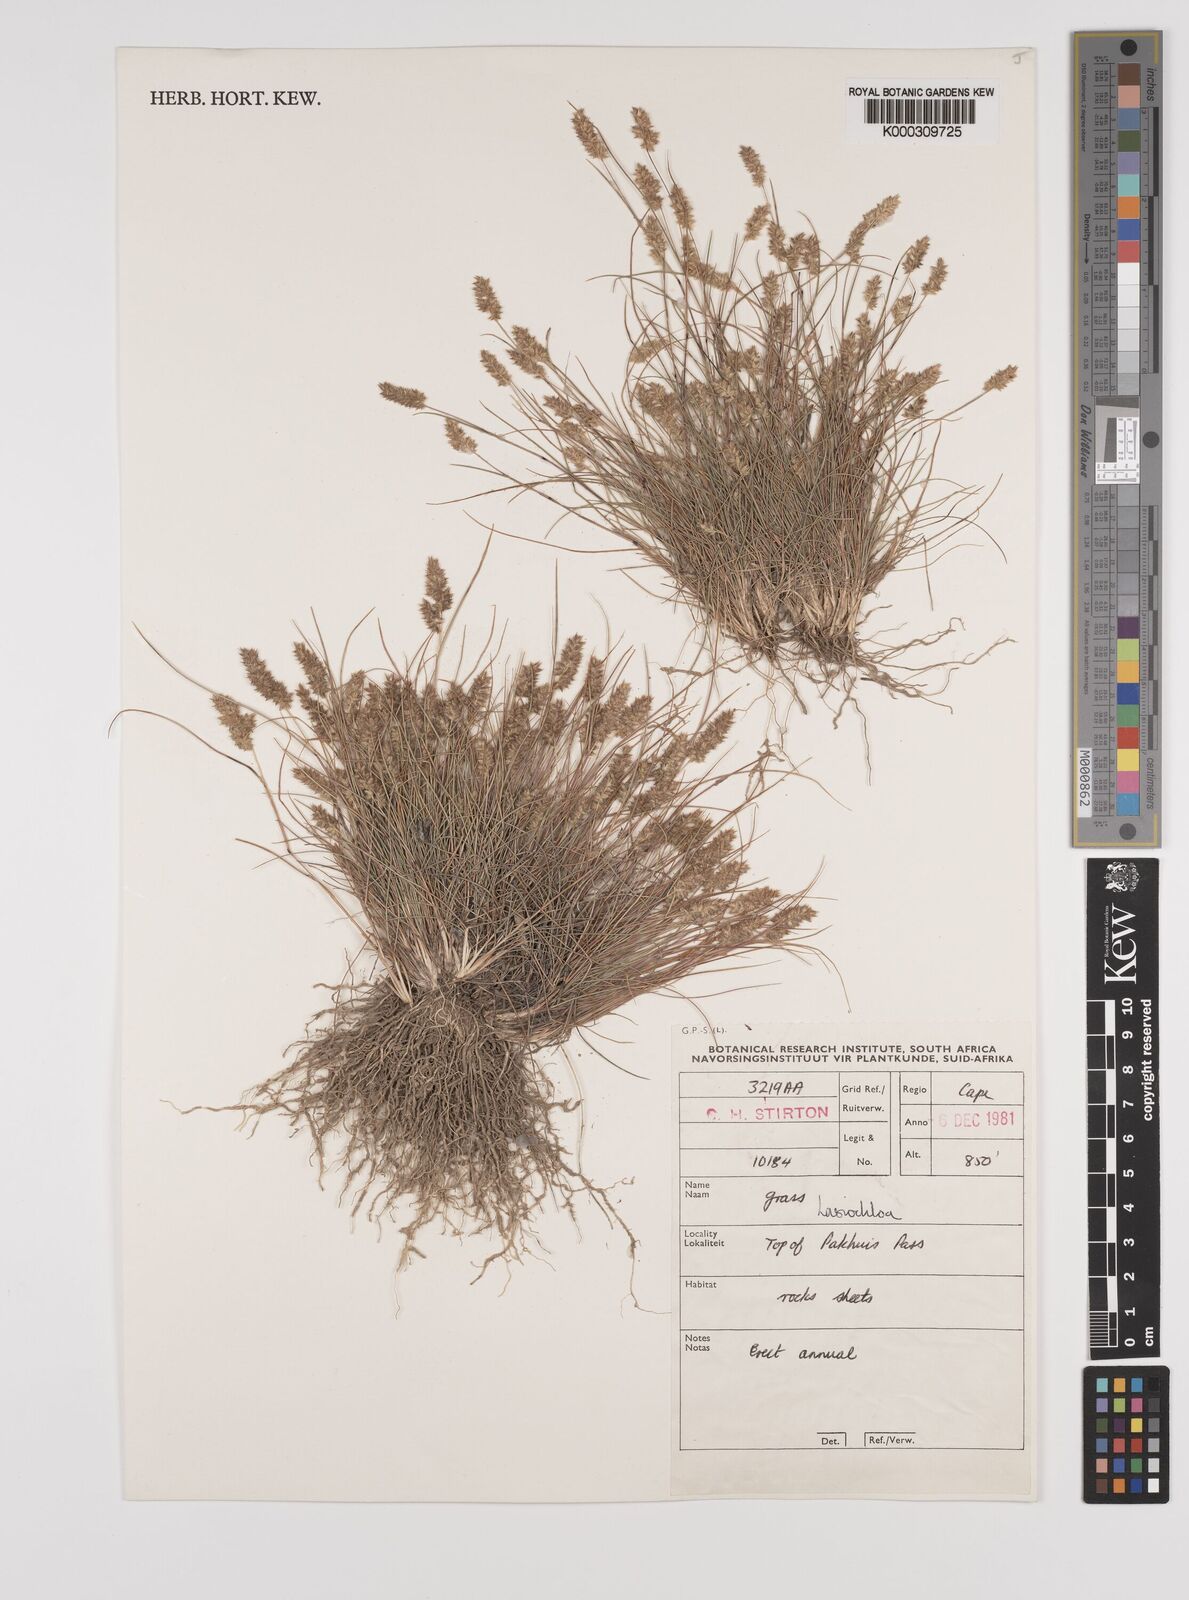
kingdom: Plantae
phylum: Tracheophyta
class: Liliopsida
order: Poales
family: Poaceae
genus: Tribolium
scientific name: Tribolium hispidum
